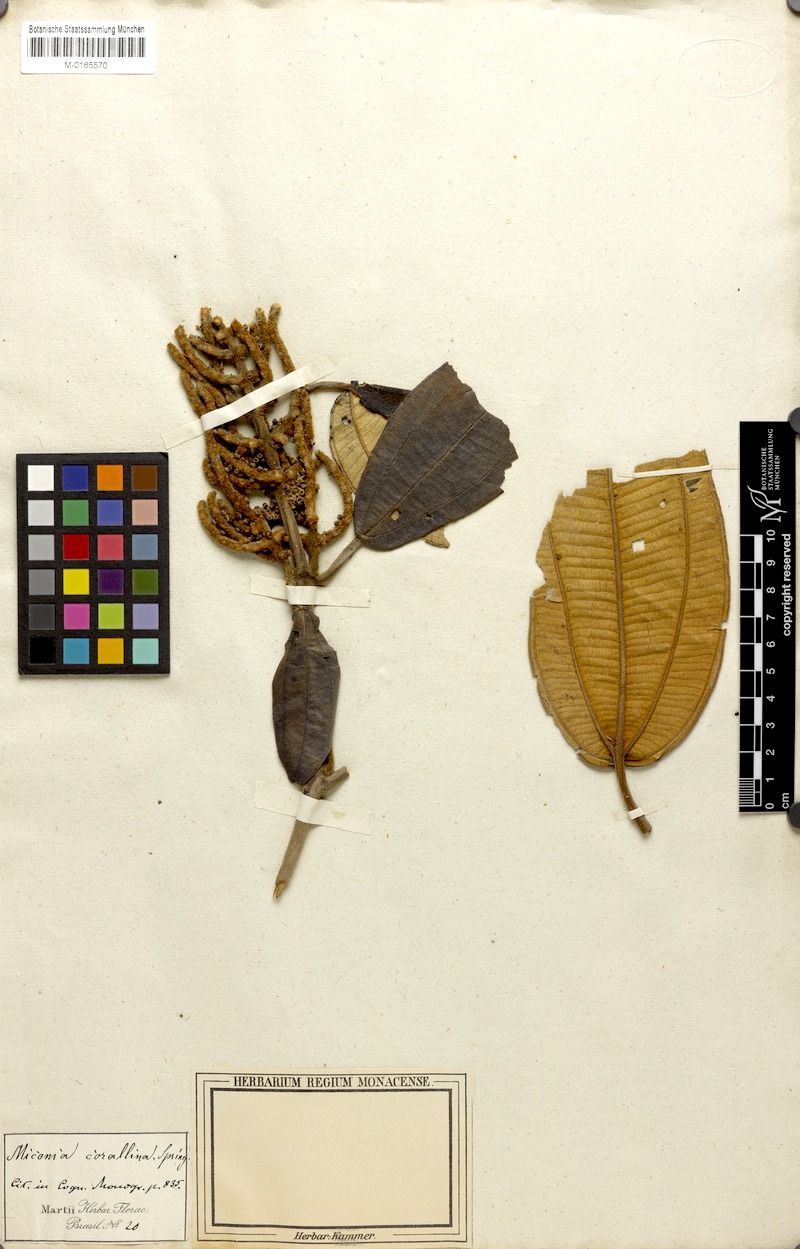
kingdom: Plantae
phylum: Tracheophyta
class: Magnoliopsida
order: Myrtales
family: Melastomataceae
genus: Miconia
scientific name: Miconia corallina
